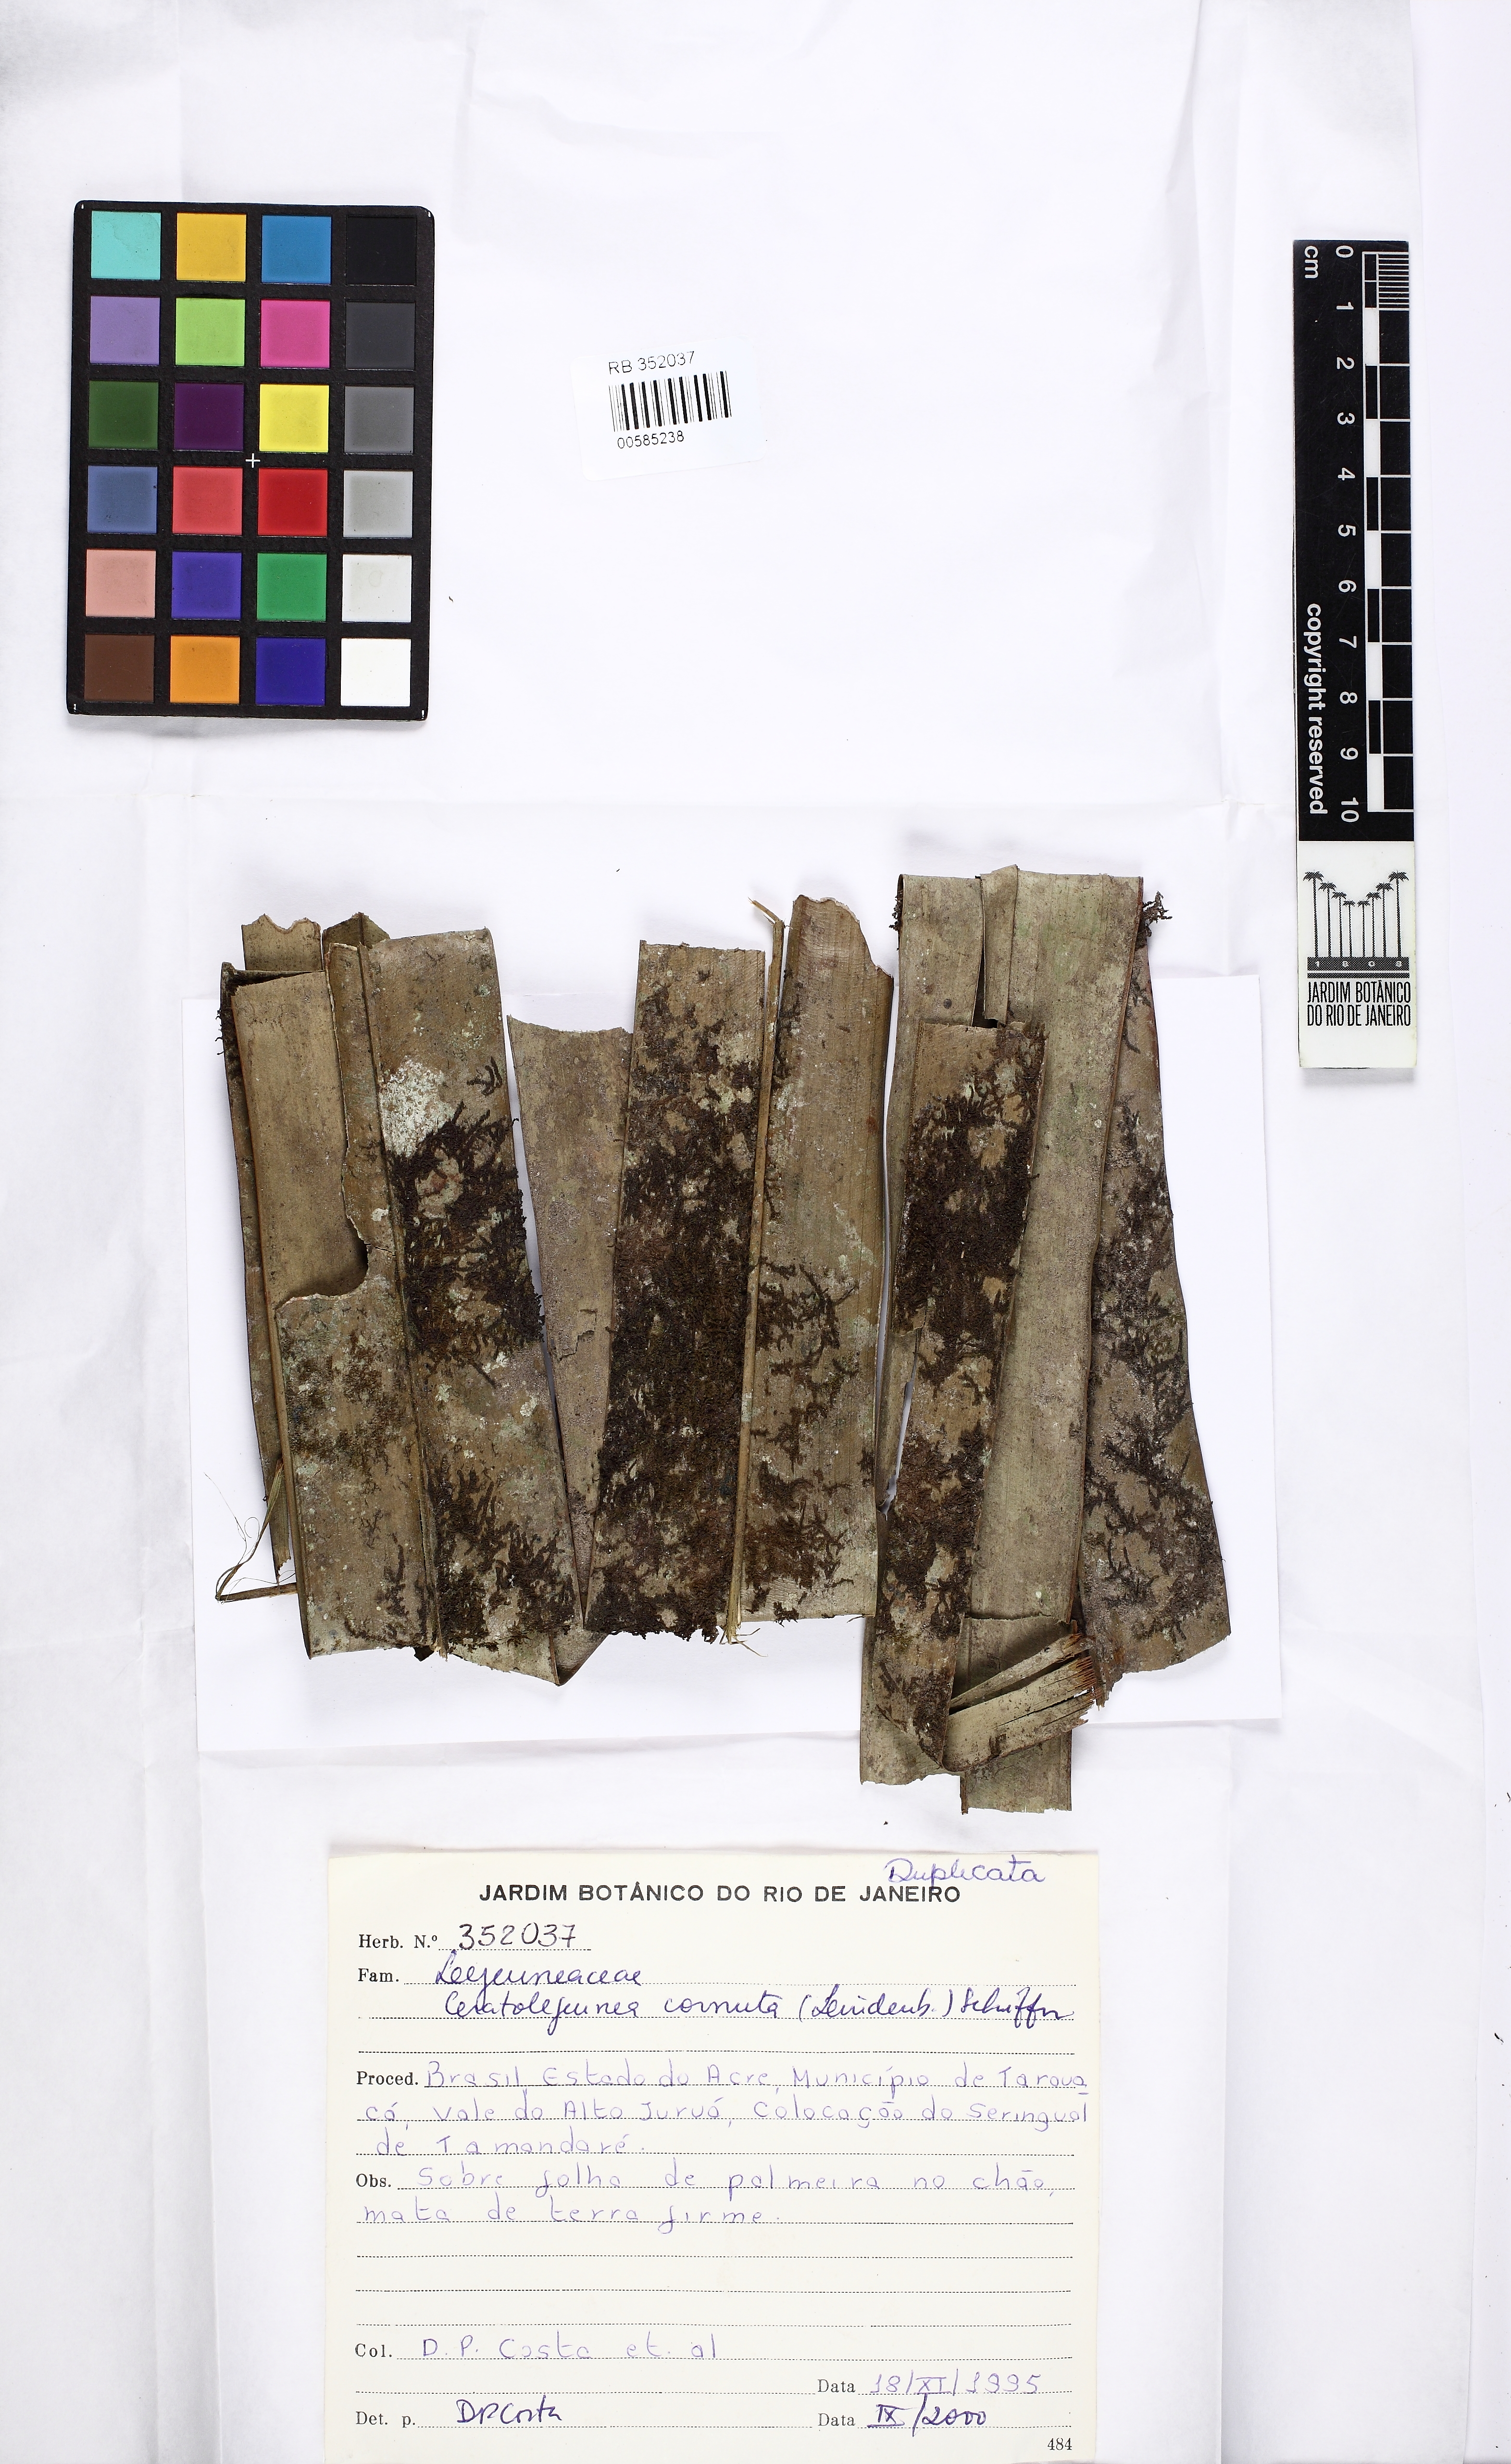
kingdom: Plantae
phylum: Marchantiophyta
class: Jungermanniopsida
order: Porellales
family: Lejeuneaceae
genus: Ceratolejeunea
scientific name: Ceratolejeunea cornuta
